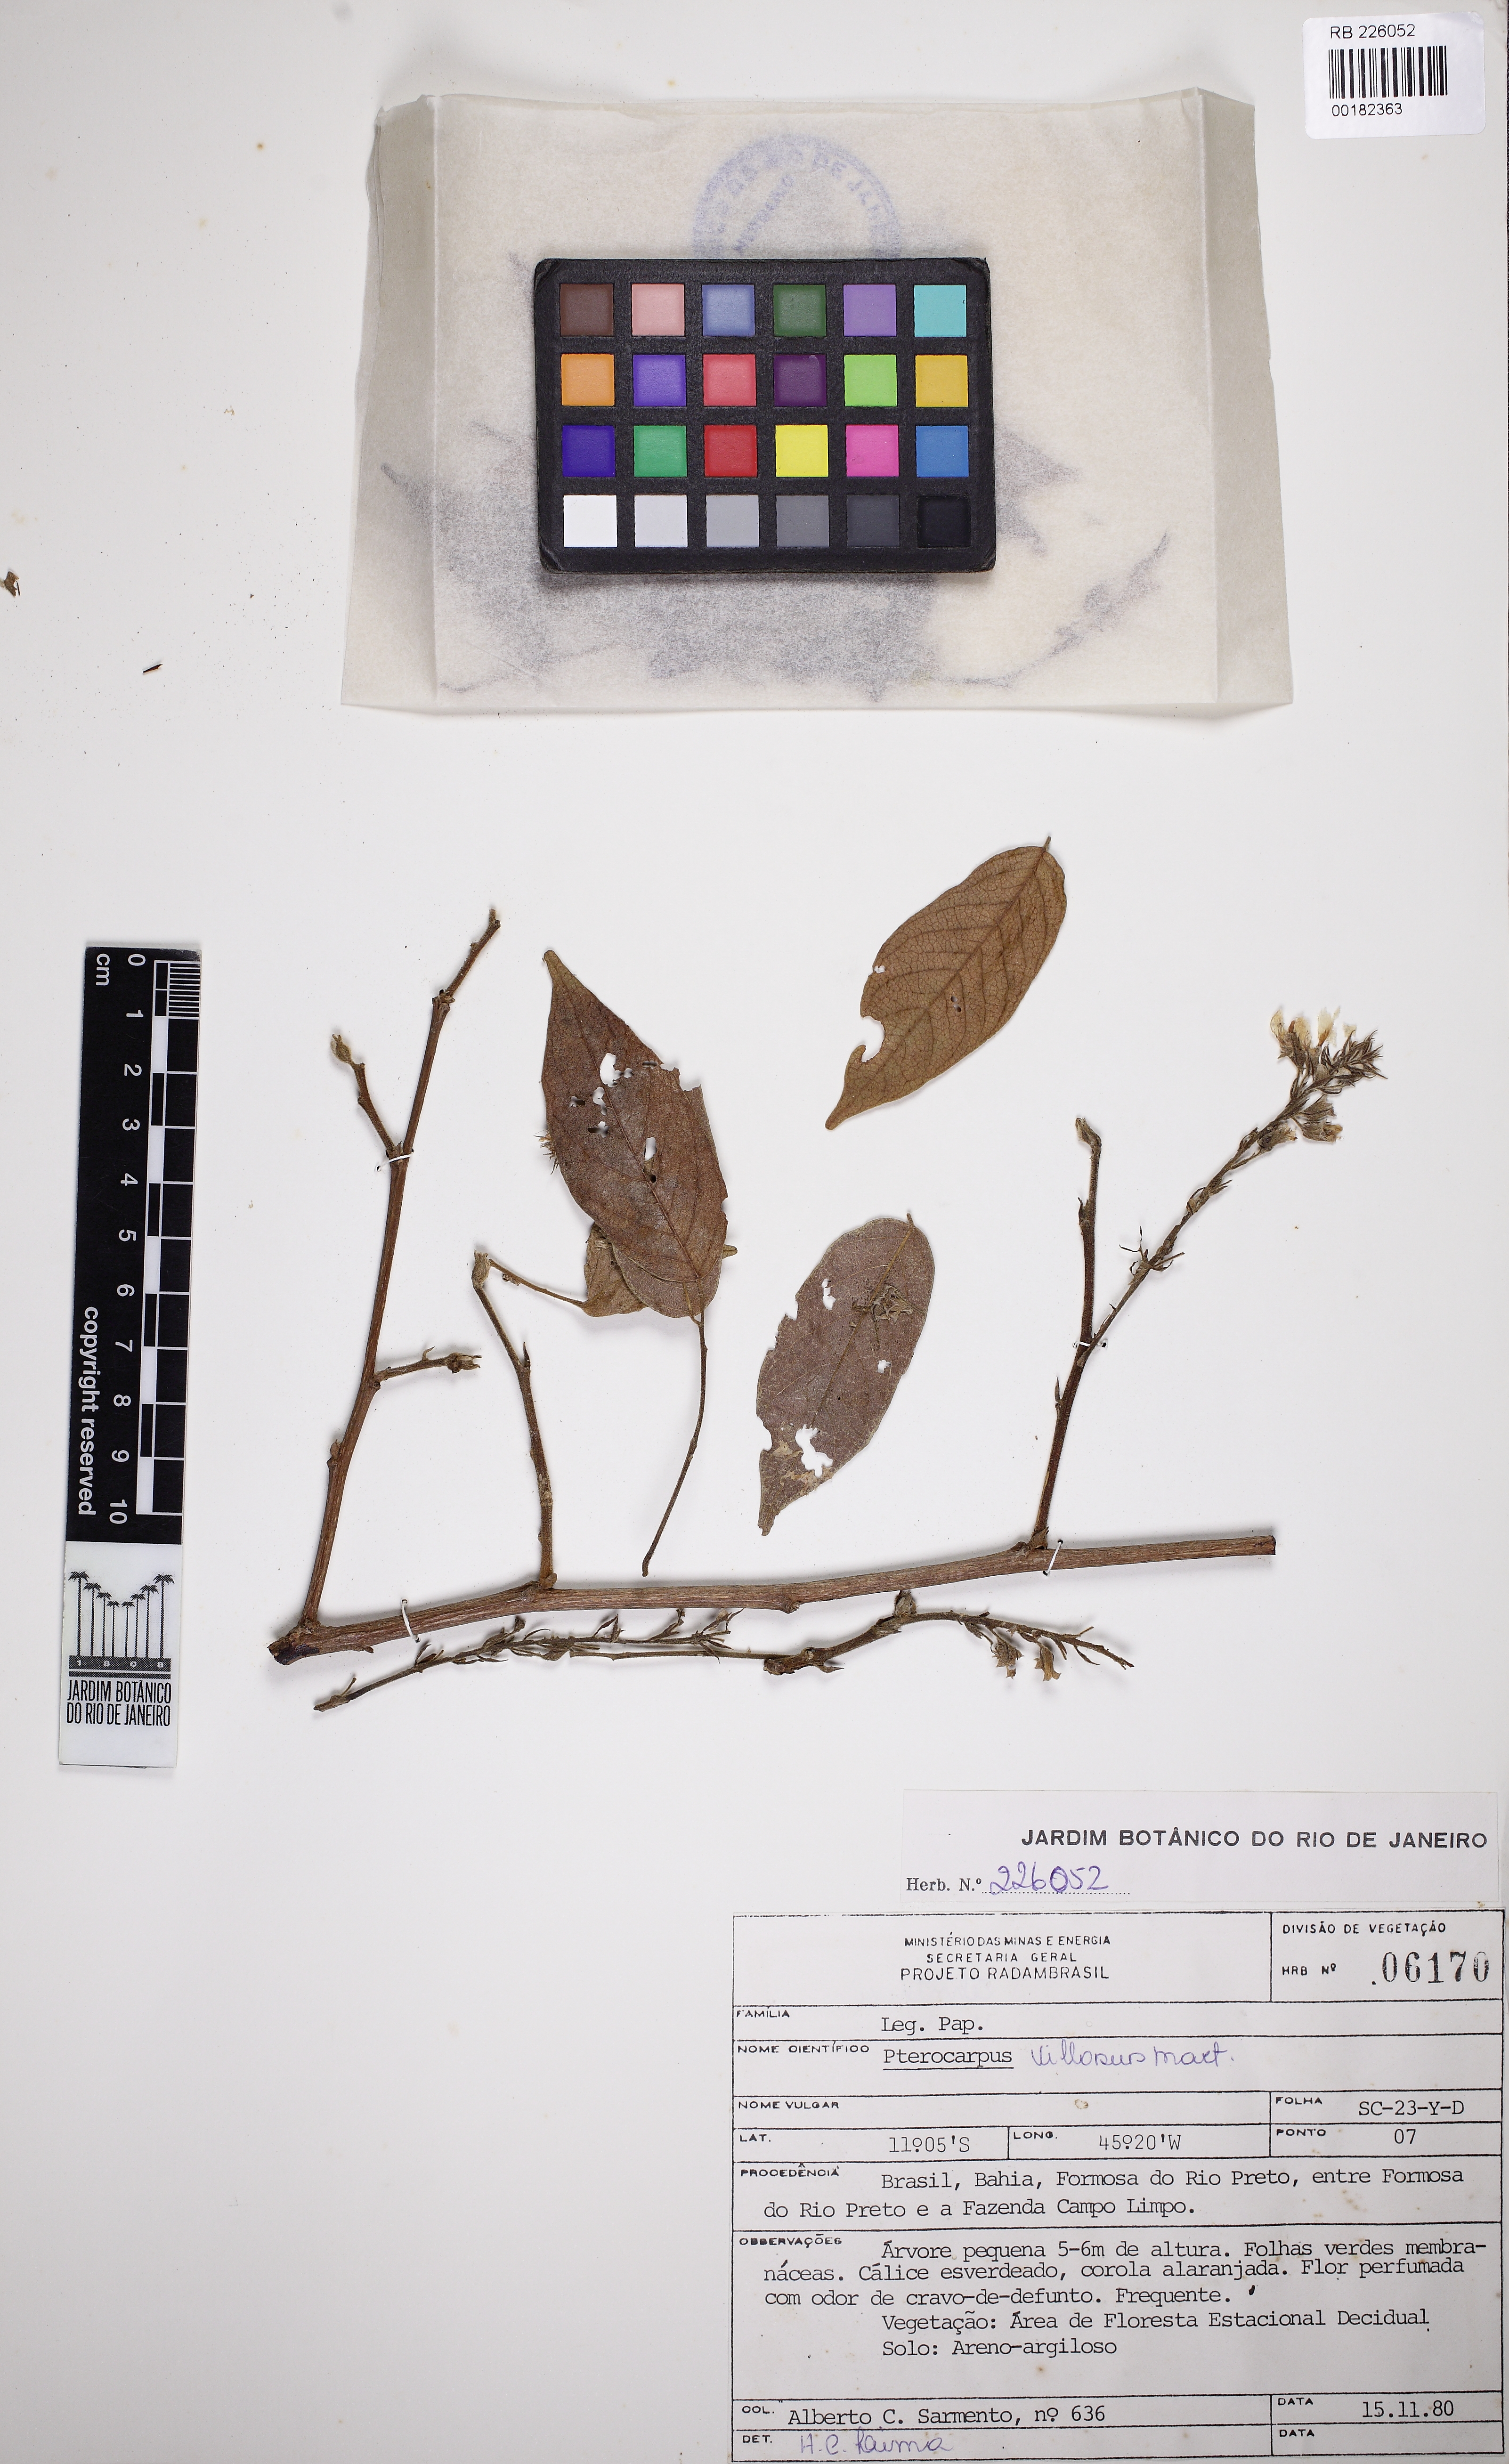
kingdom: Plantae
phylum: Tracheophyta
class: Magnoliopsida
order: Fabales
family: Fabaceae
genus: Pterocarpus
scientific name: Pterocarpus villosus
